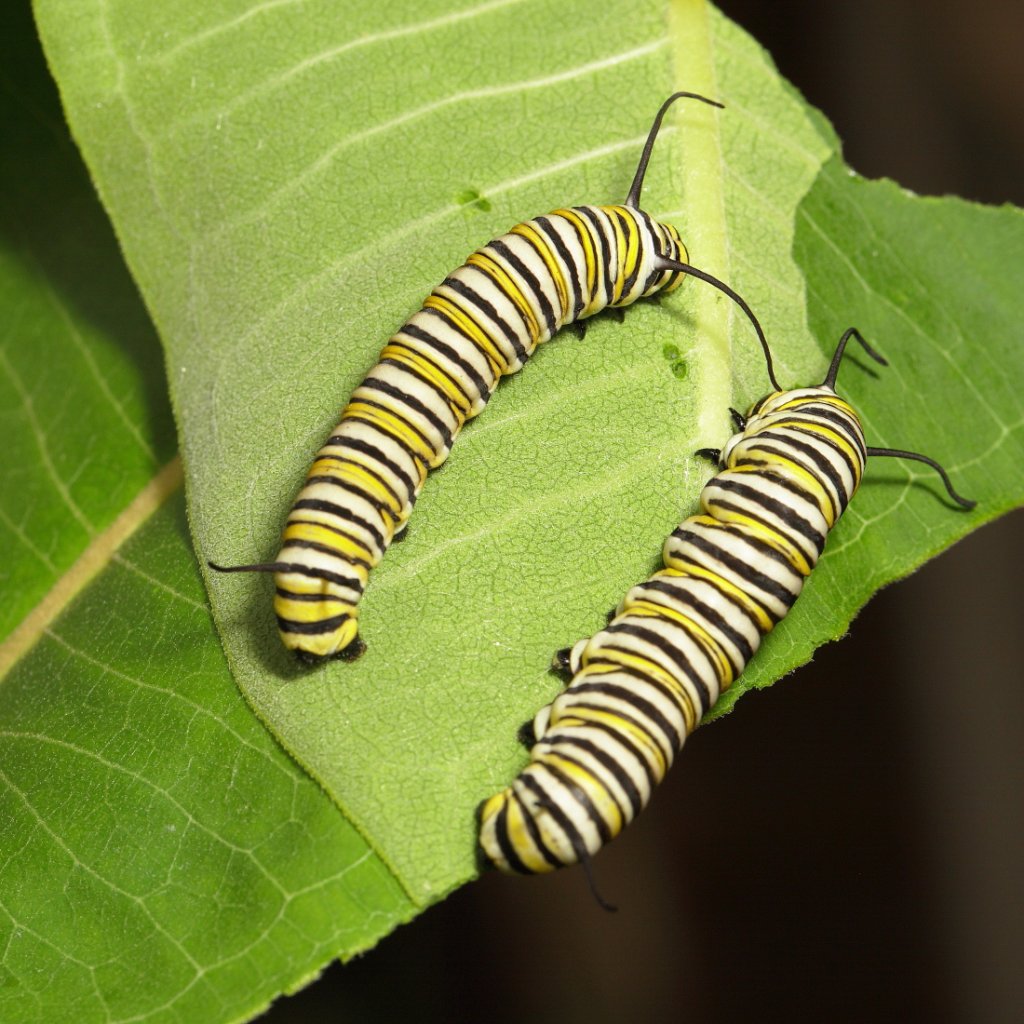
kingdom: Animalia
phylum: Arthropoda
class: Insecta
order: Lepidoptera
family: Nymphalidae
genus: Danaus
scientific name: Danaus plexippus
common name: Monarch
